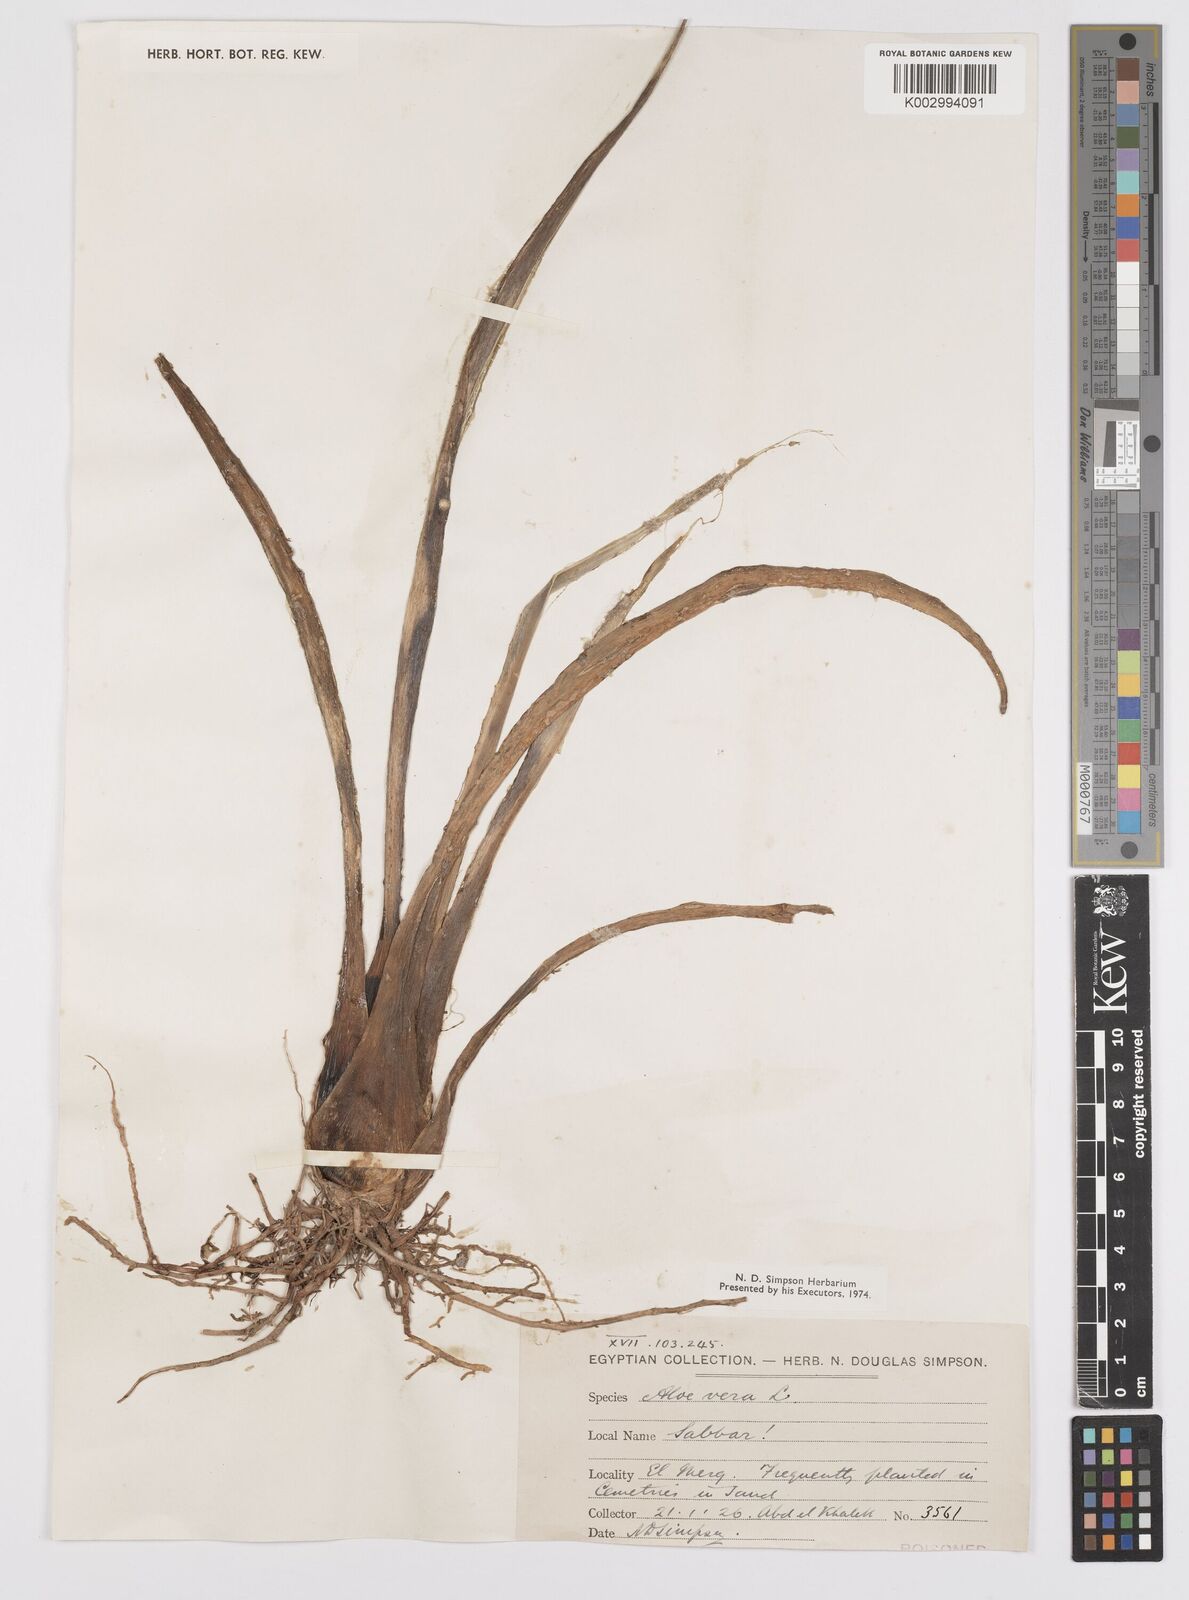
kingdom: Plantae
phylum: Tracheophyta
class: Liliopsida
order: Asparagales
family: Asphodelaceae
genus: Aloe
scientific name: Aloe vera
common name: Barbados aloe
